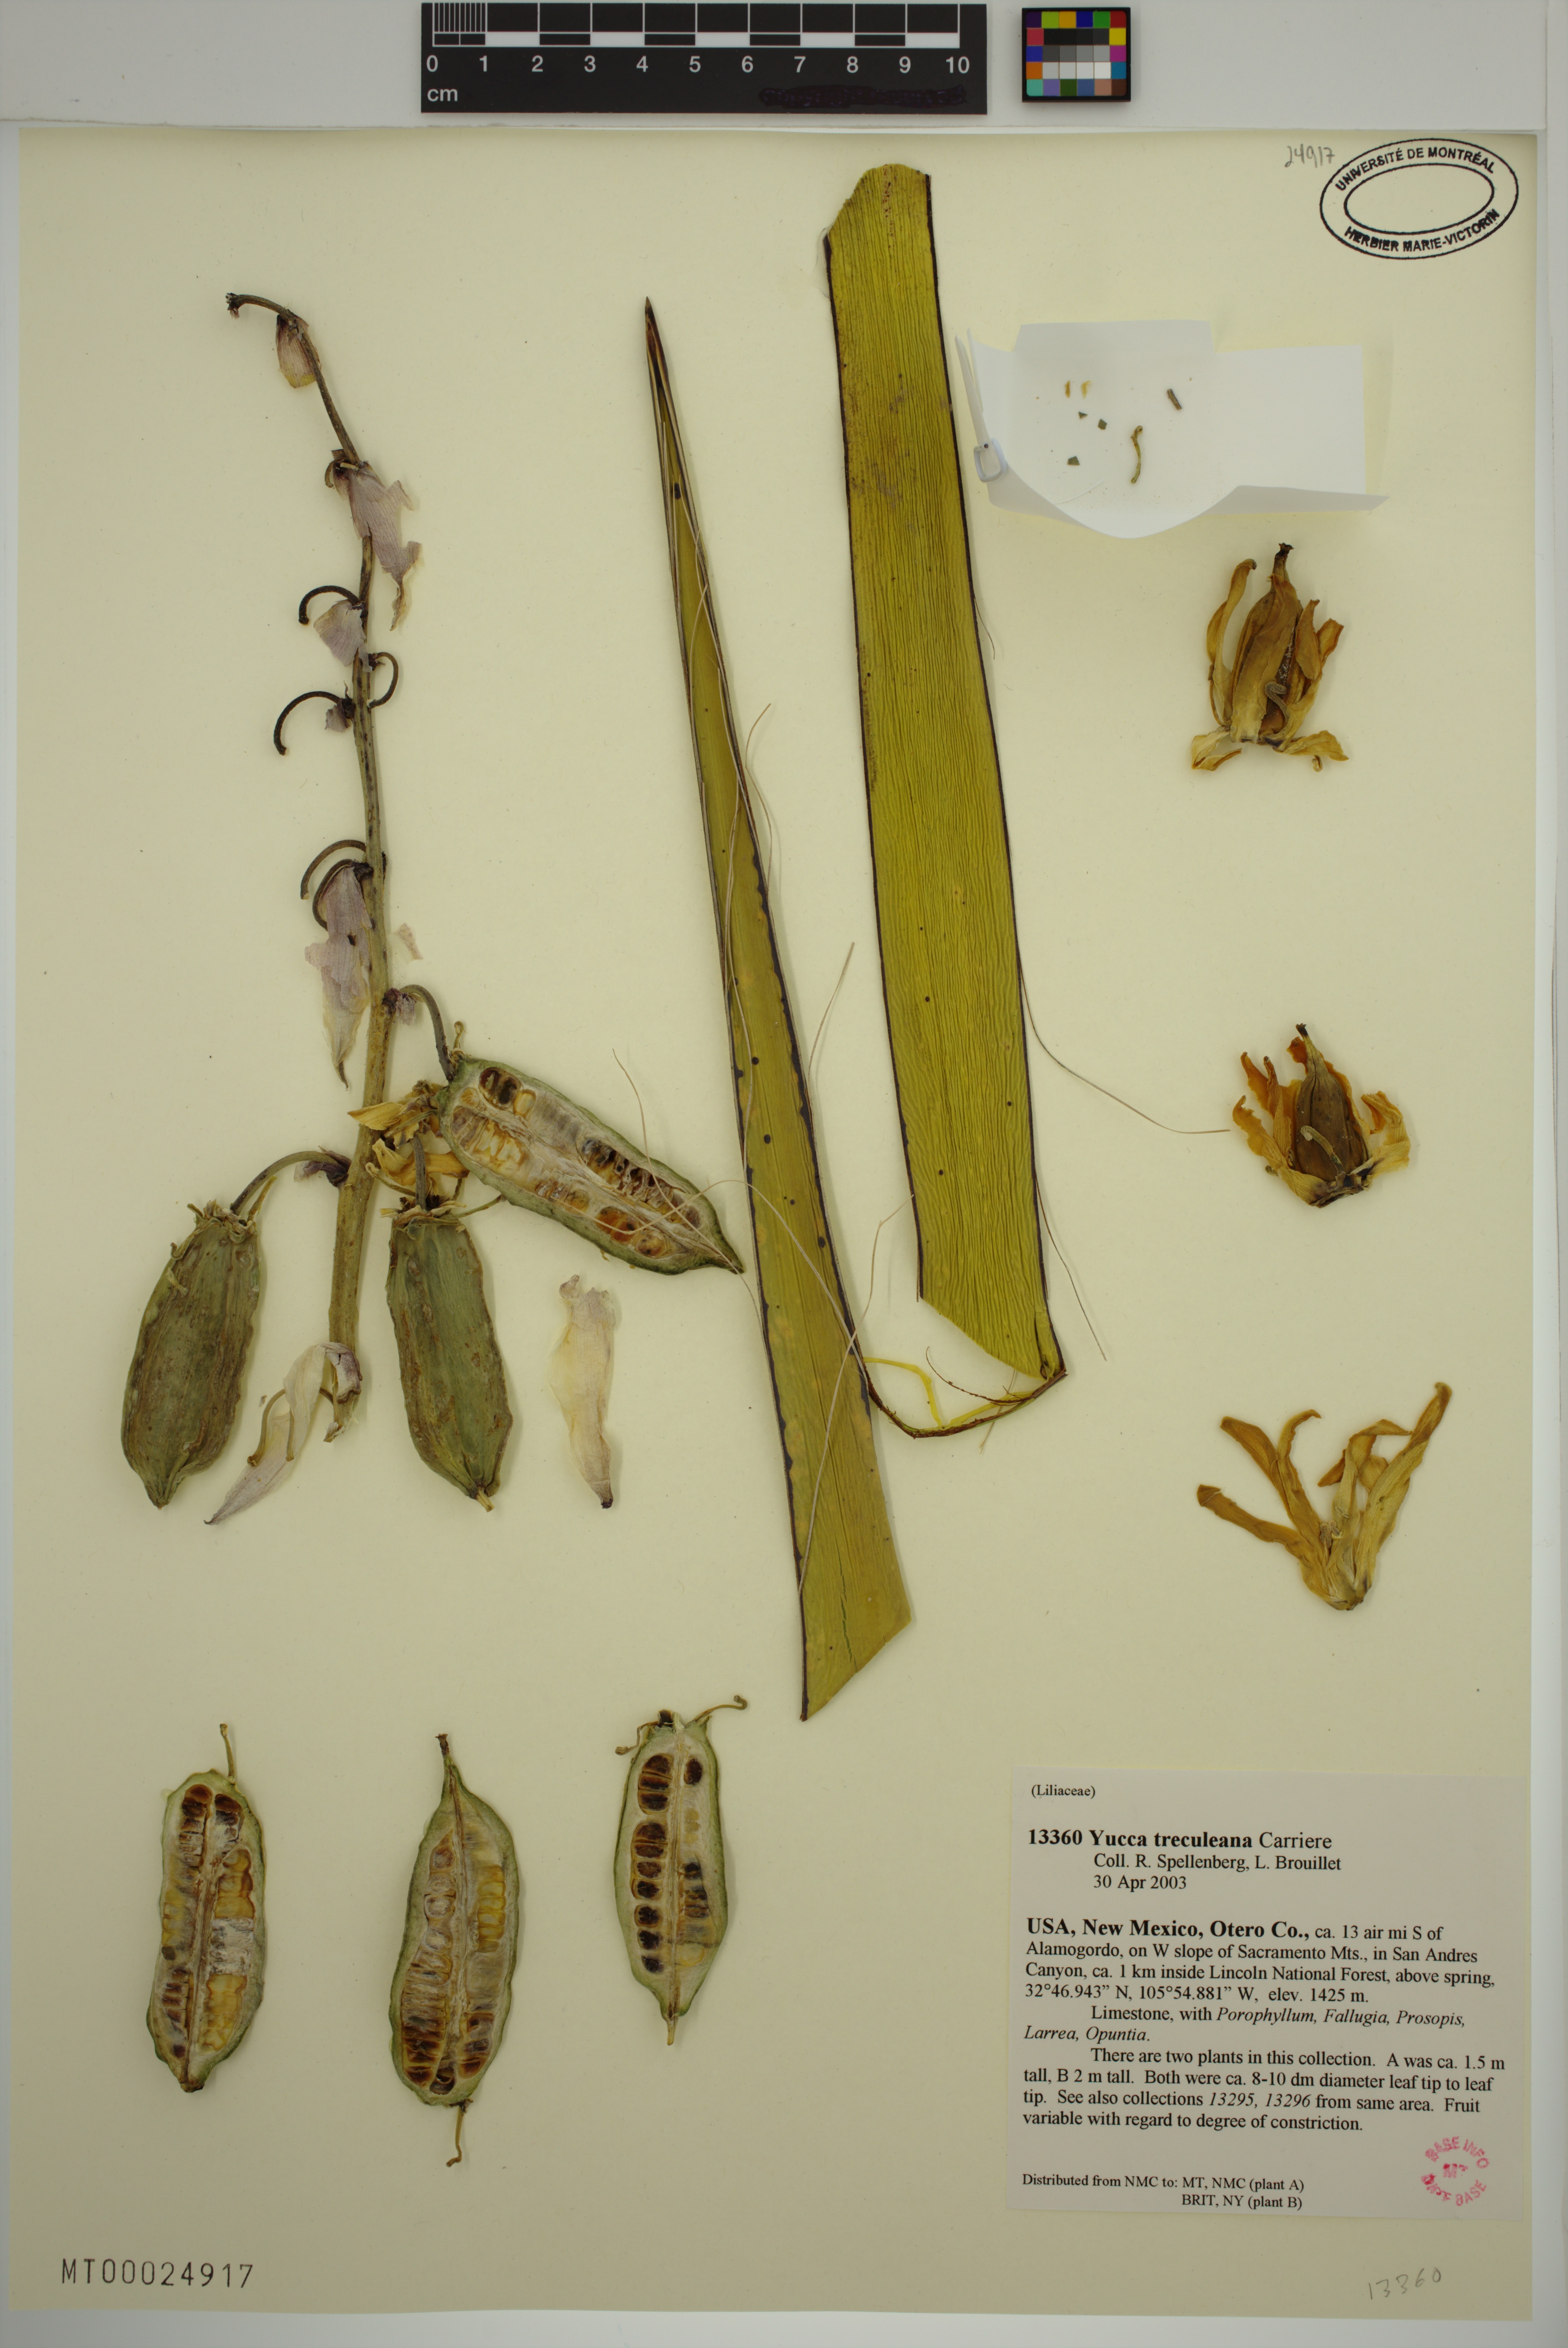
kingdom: Plantae
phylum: Tracheophyta
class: Liliopsida
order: Asparagales
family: Asparagaceae
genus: Yucca
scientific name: Yucca treculeana
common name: Spanish bayonet
